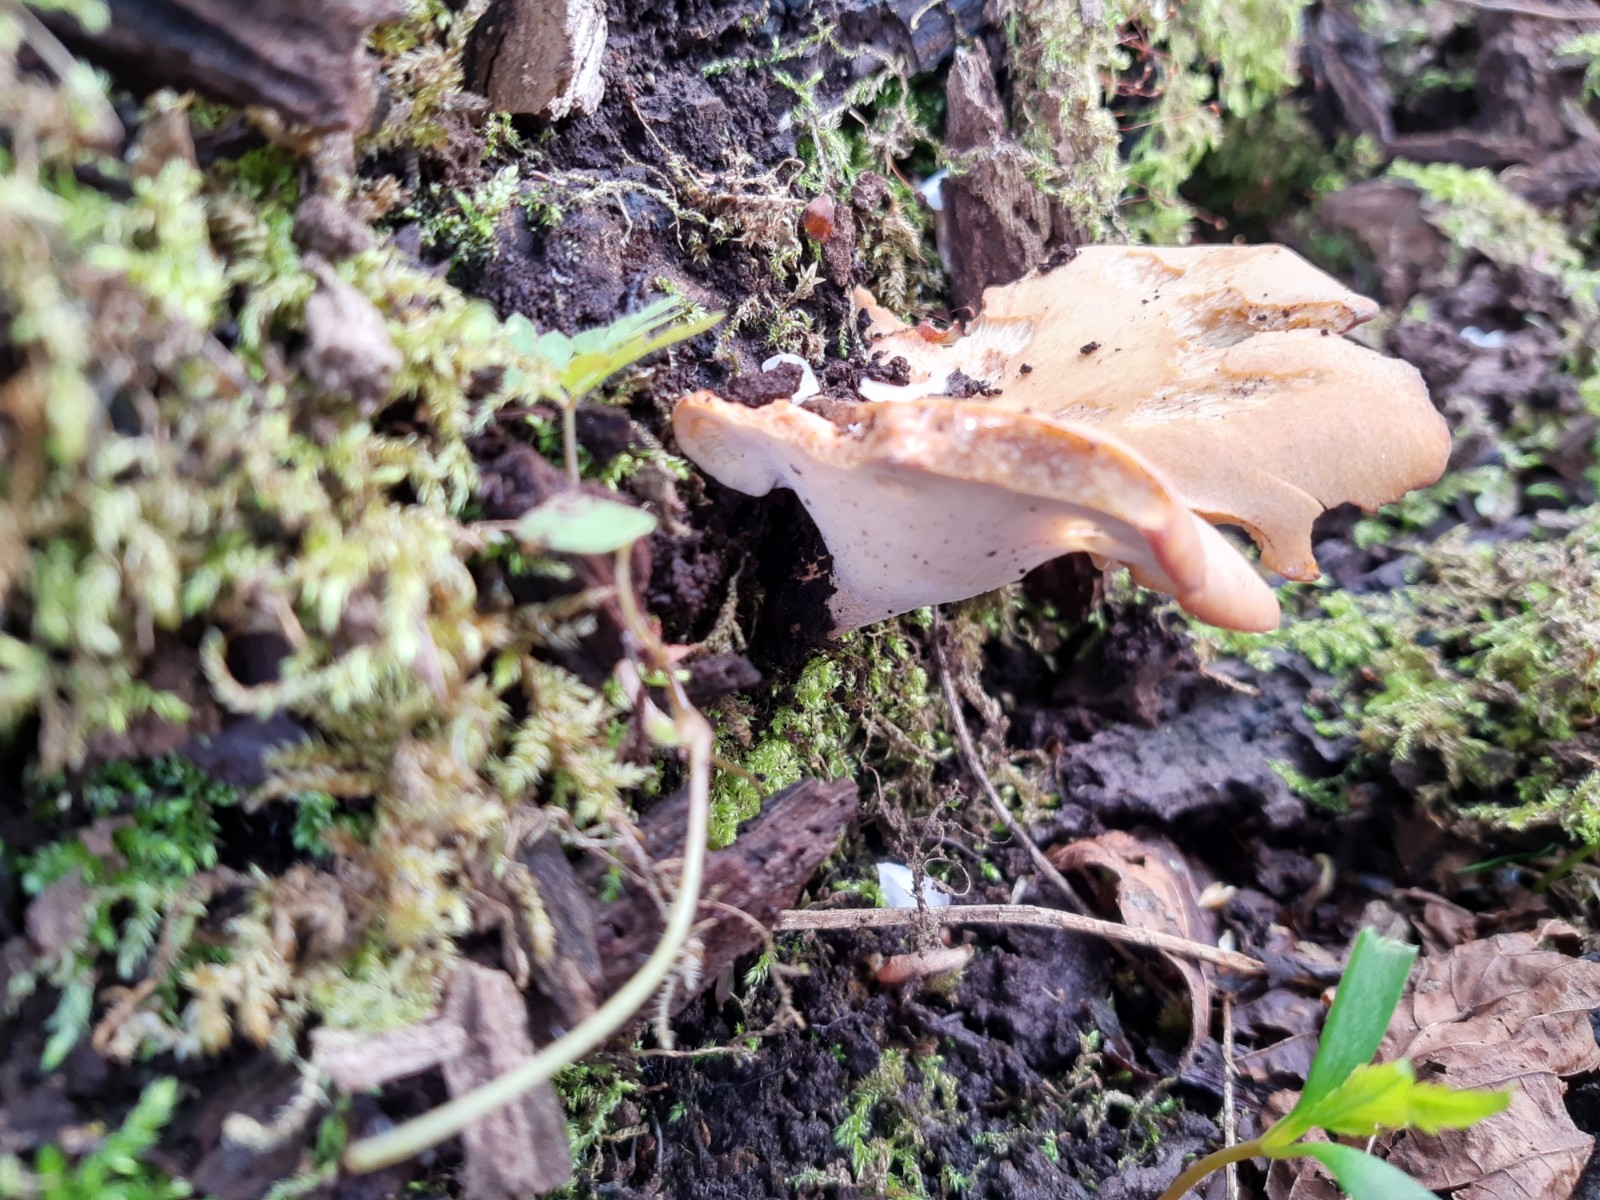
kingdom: Fungi
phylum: Basidiomycota
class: Agaricomycetes
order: Polyporales
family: Polyporaceae
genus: Cerioporus
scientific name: Cerioporus varius
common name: foranderlig stilkporesvamp
